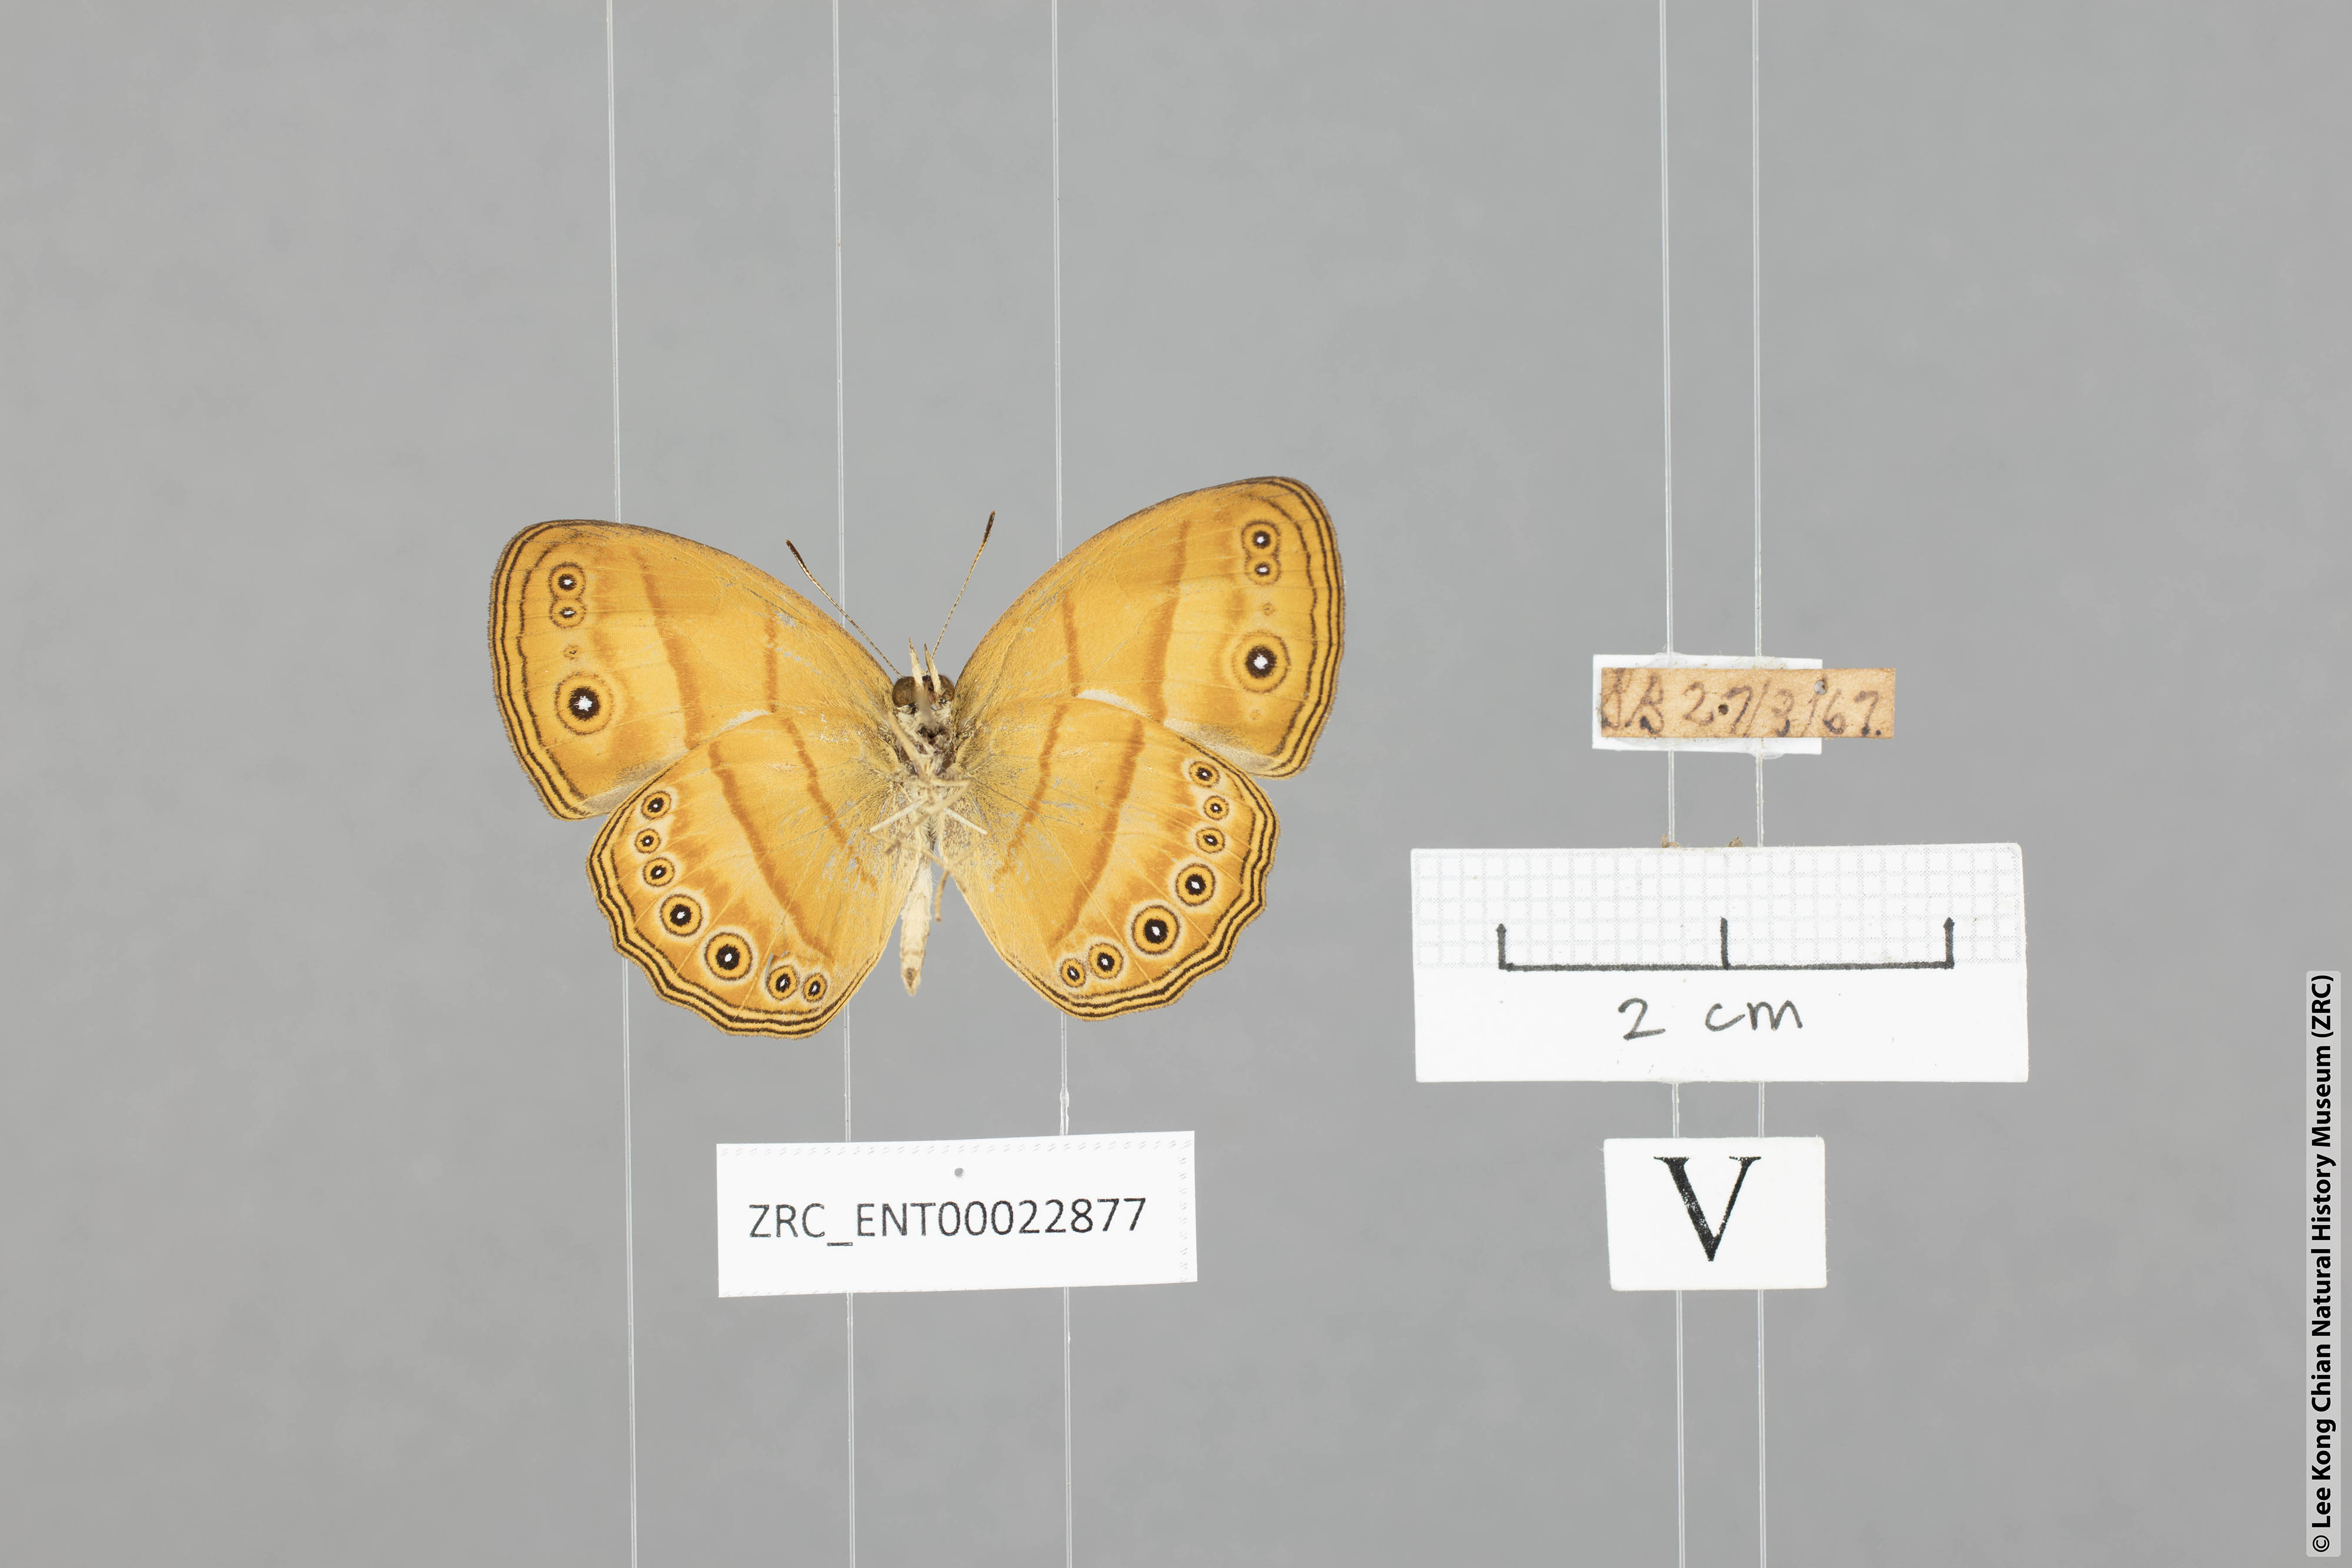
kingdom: Animalia
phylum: Arthropoda
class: Insecta
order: Lepidoptera
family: Nymphalidae
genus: Mycalesis
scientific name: Mycalesis anapita
